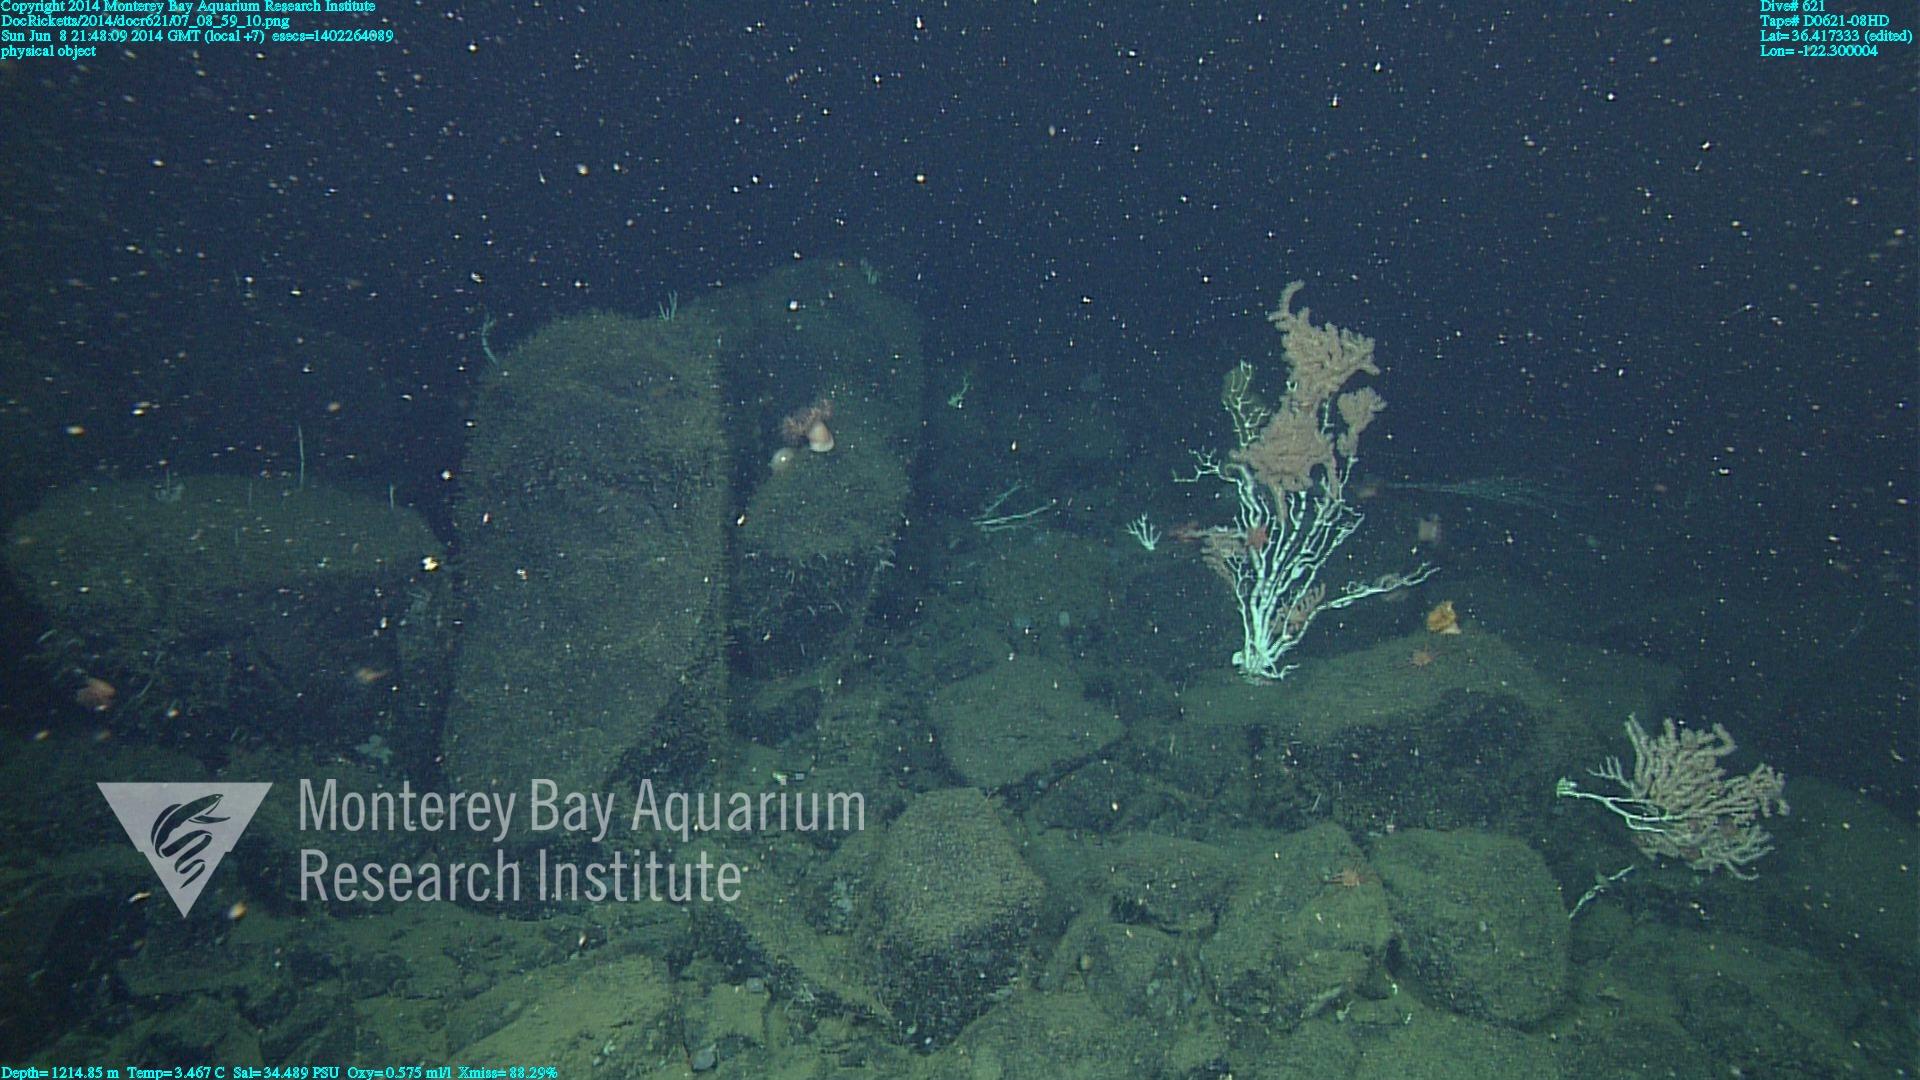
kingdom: Animalia
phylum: Cnidaria
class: Anthozoa
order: Scleralcyonacea
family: Keratoisididae
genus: Keratoisis
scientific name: Keratoisis
